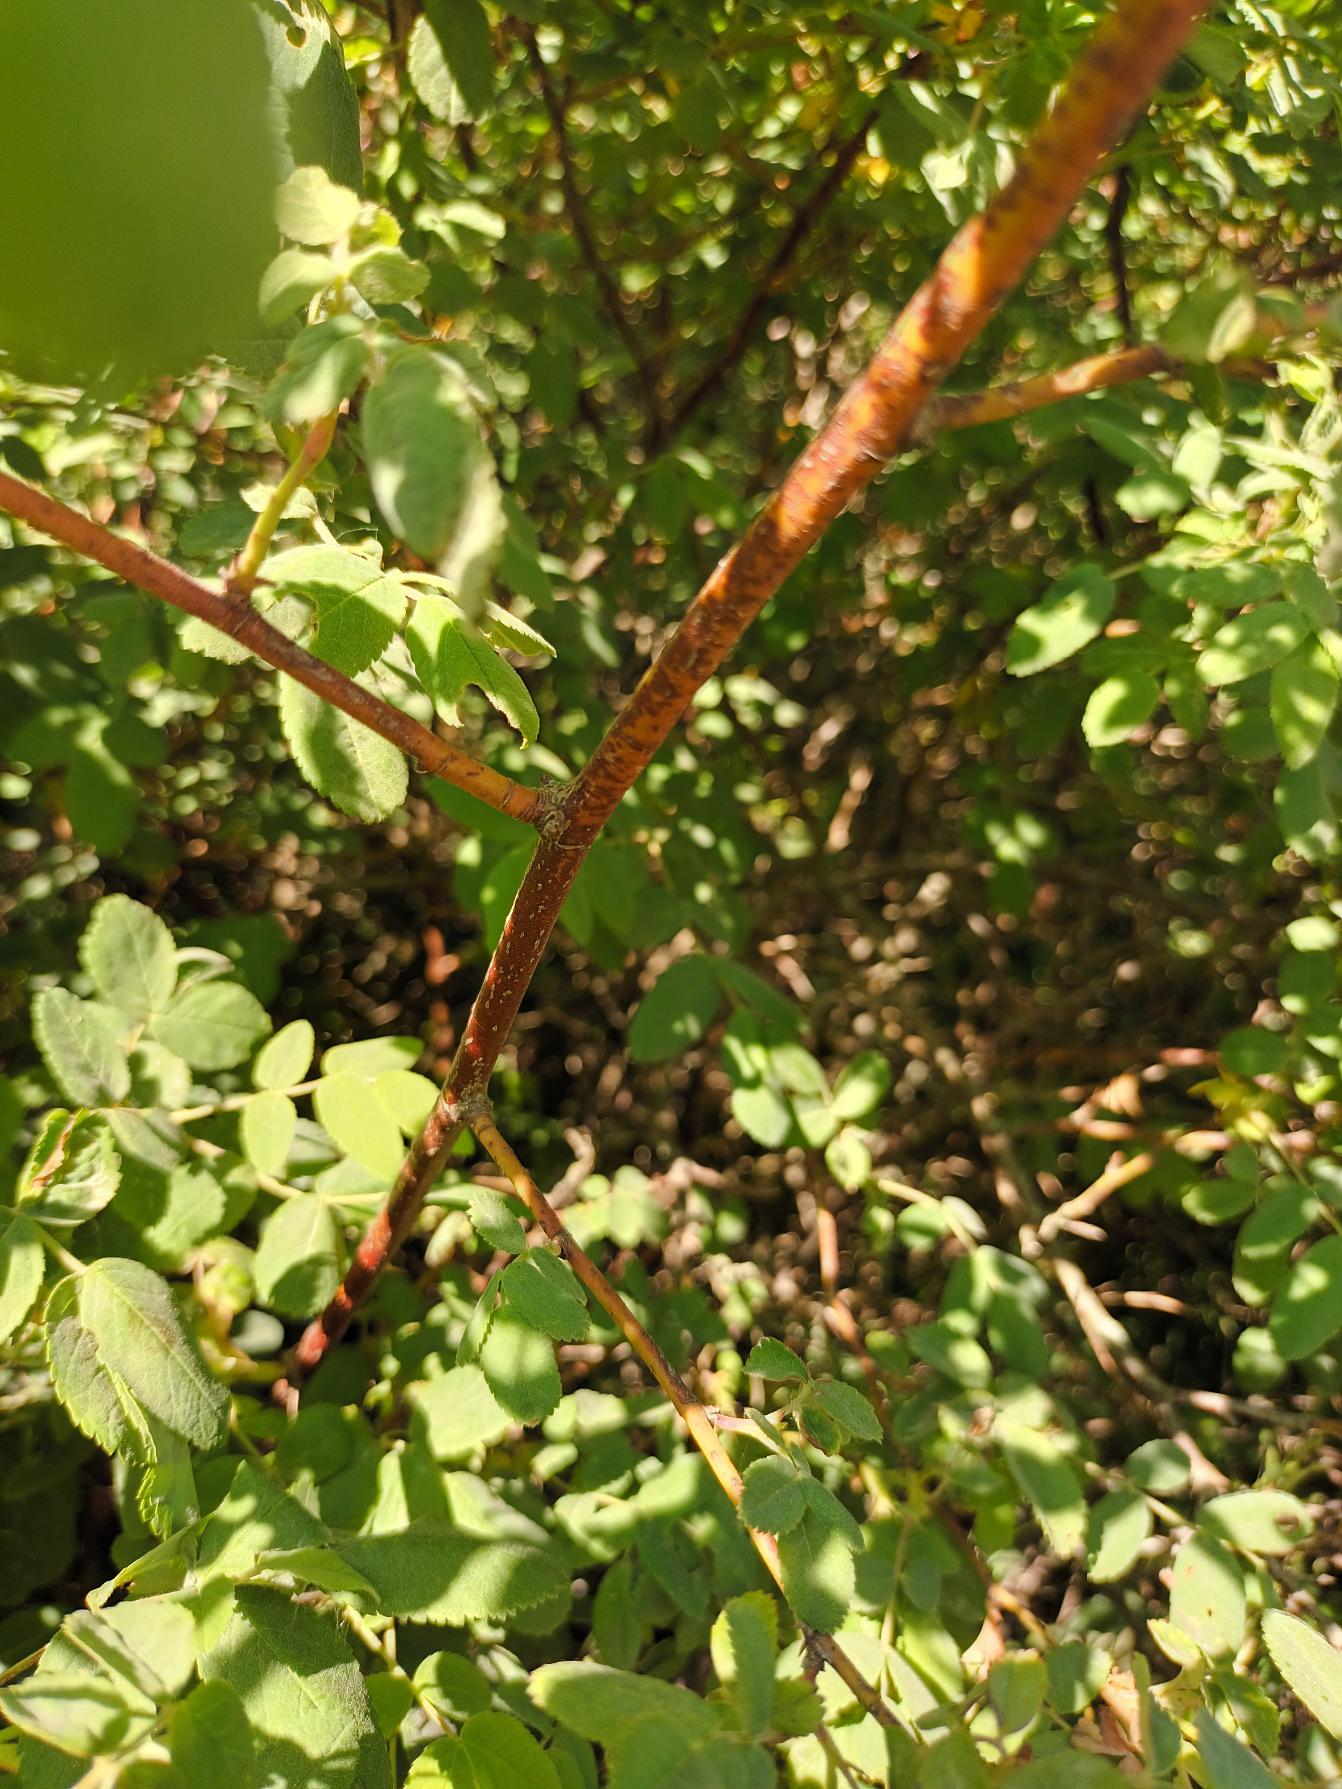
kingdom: Plantae
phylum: Tracheophyta
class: Magnoliopsida
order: Rosales
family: Rosaceae
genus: Rosa
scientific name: Rosa blanda
